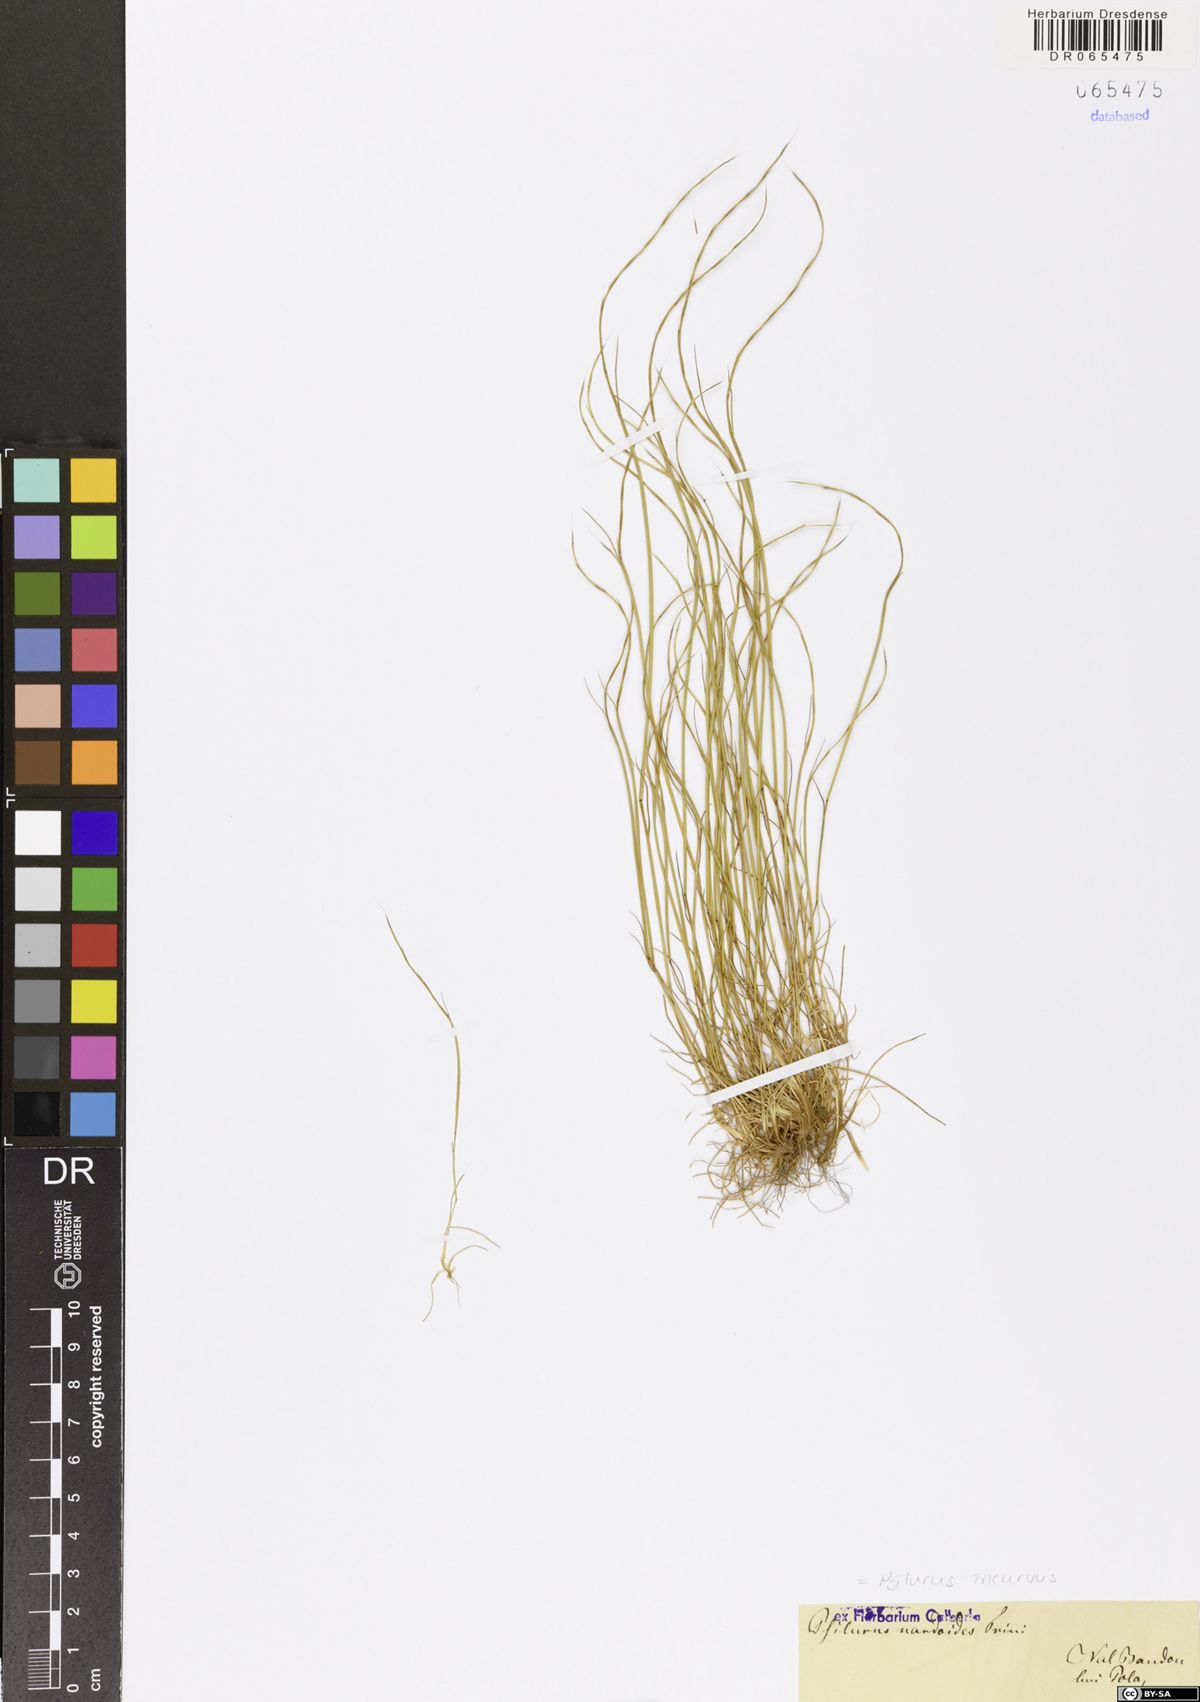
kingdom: Plantae
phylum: Tracheophyta
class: Liliopsida
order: Poales
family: Poaceae
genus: Festuca
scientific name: Festuca incurva
